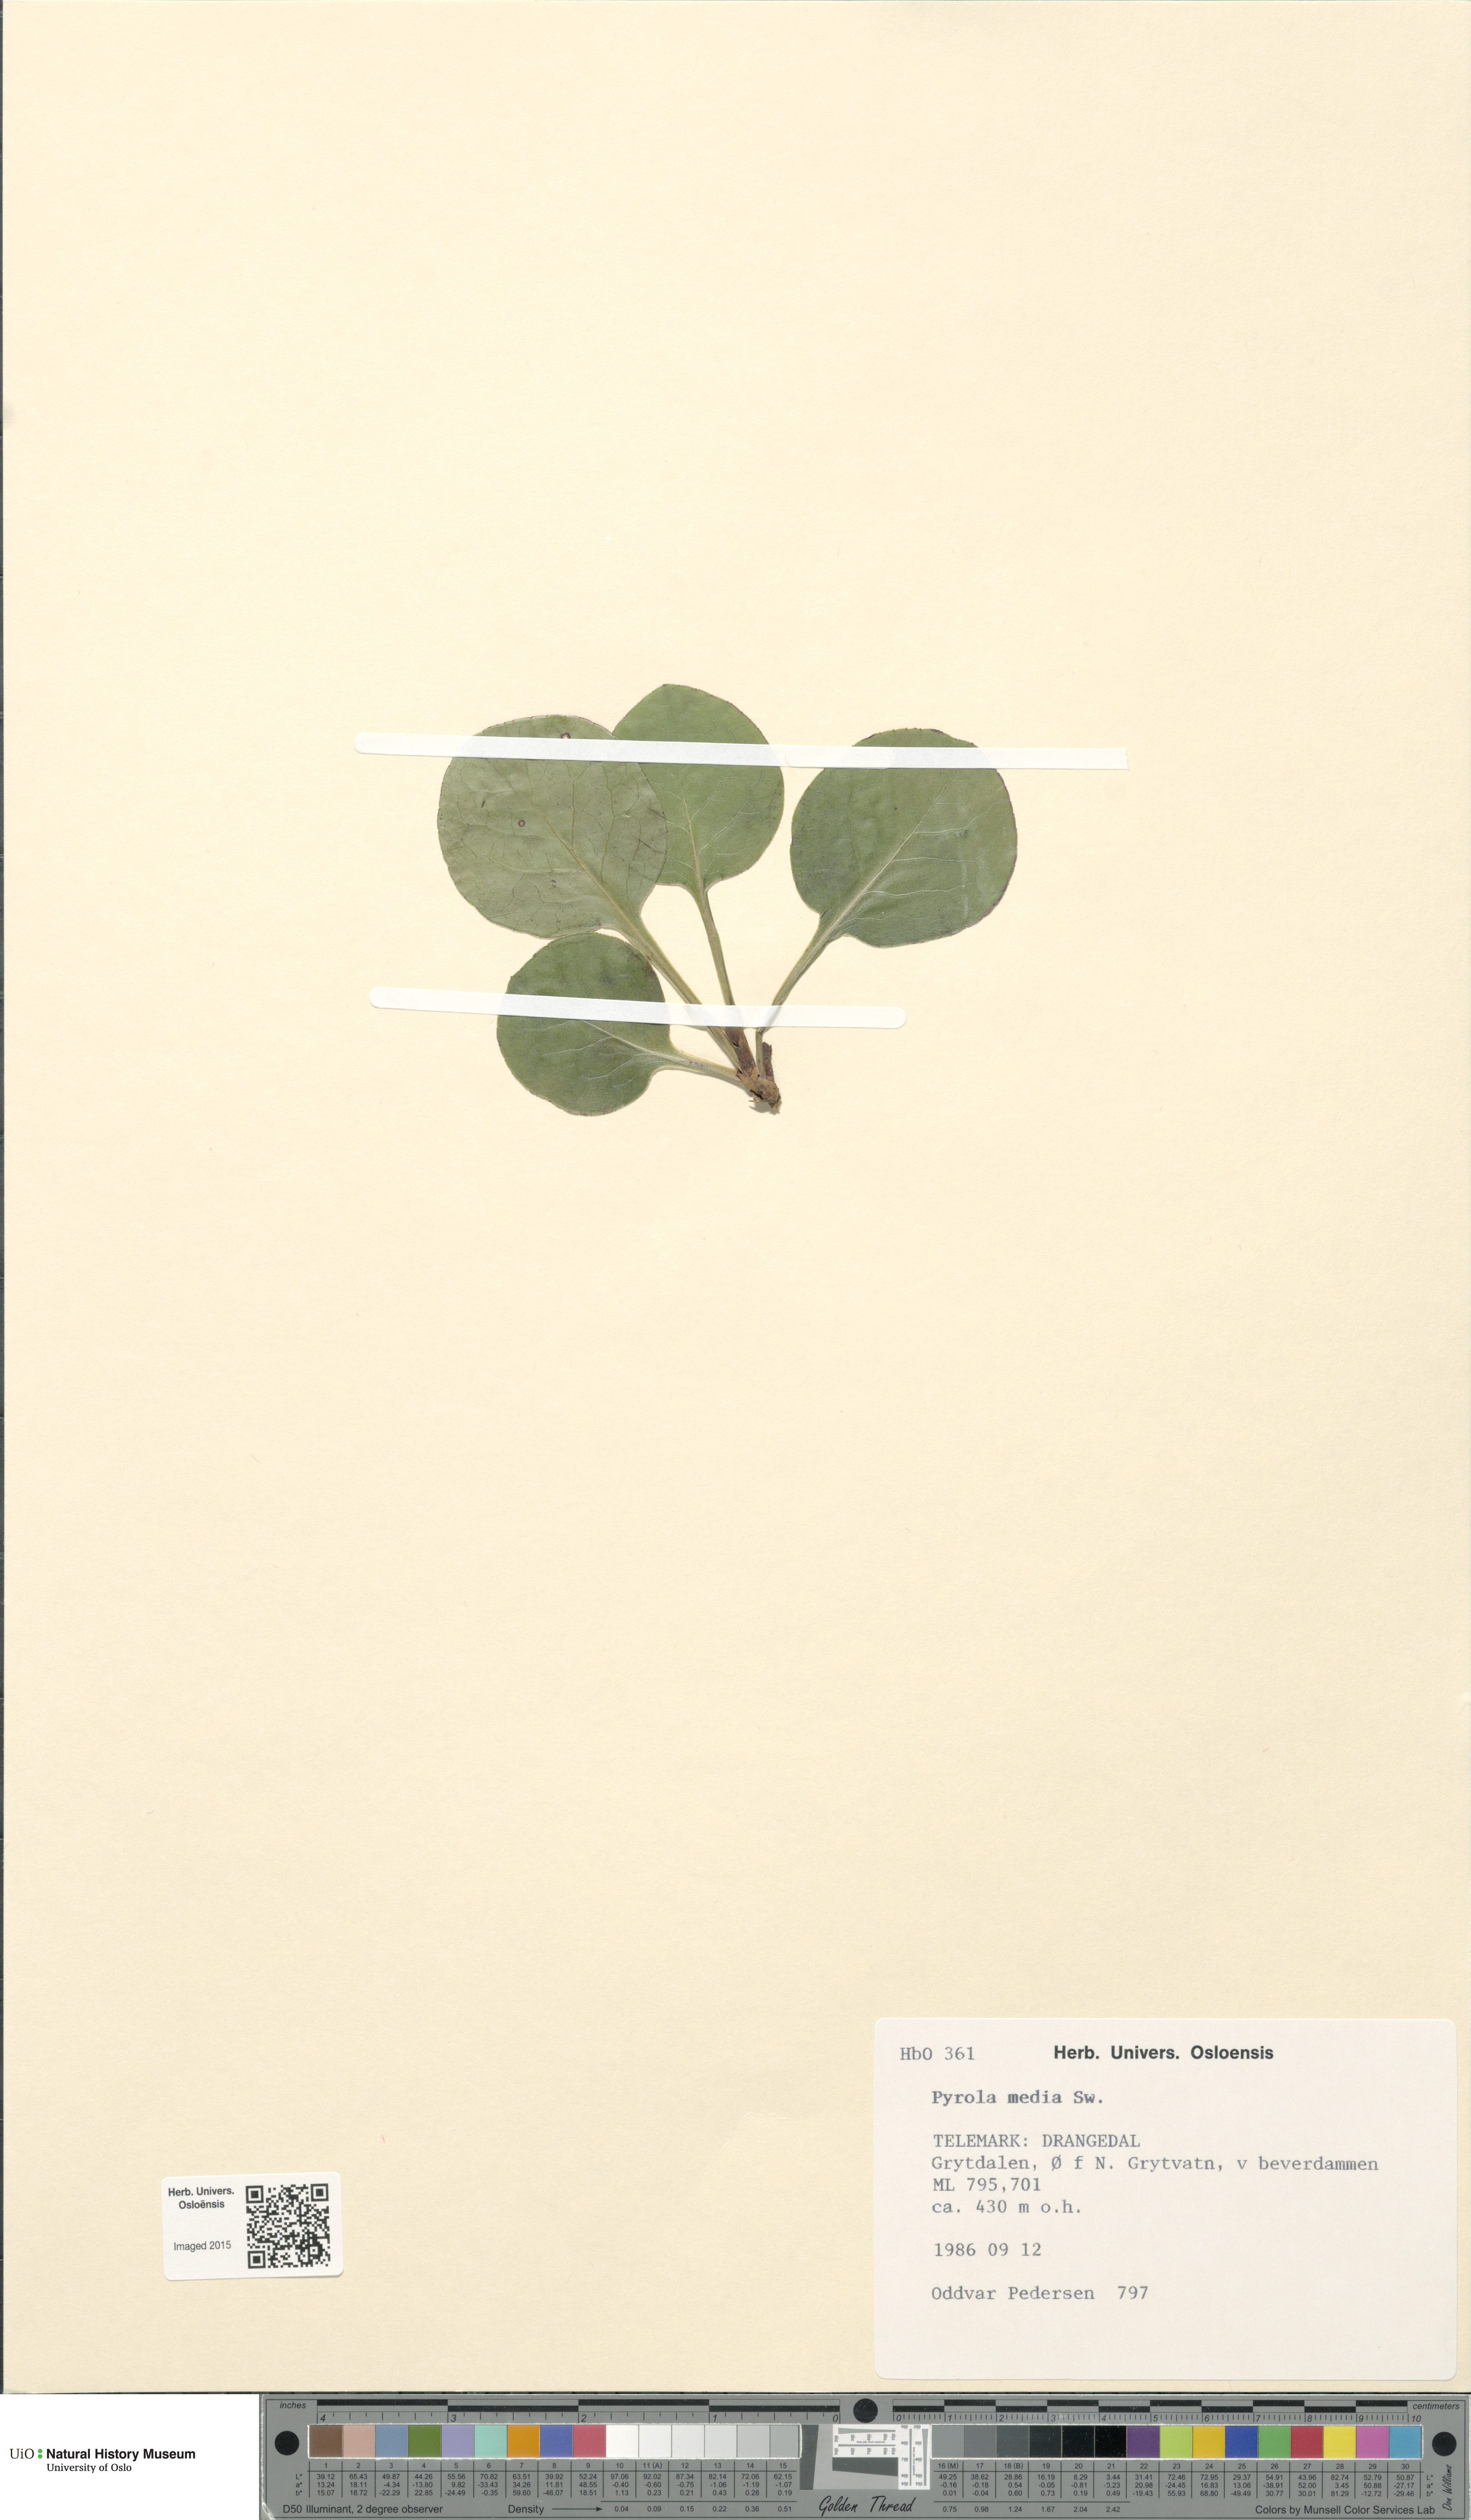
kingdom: Plantae
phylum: Tracheophyta
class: Magnoliopsida
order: Ericales
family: Ericaceae
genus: Pyrola
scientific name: Pyrola media
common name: Intermediate wintergreen
